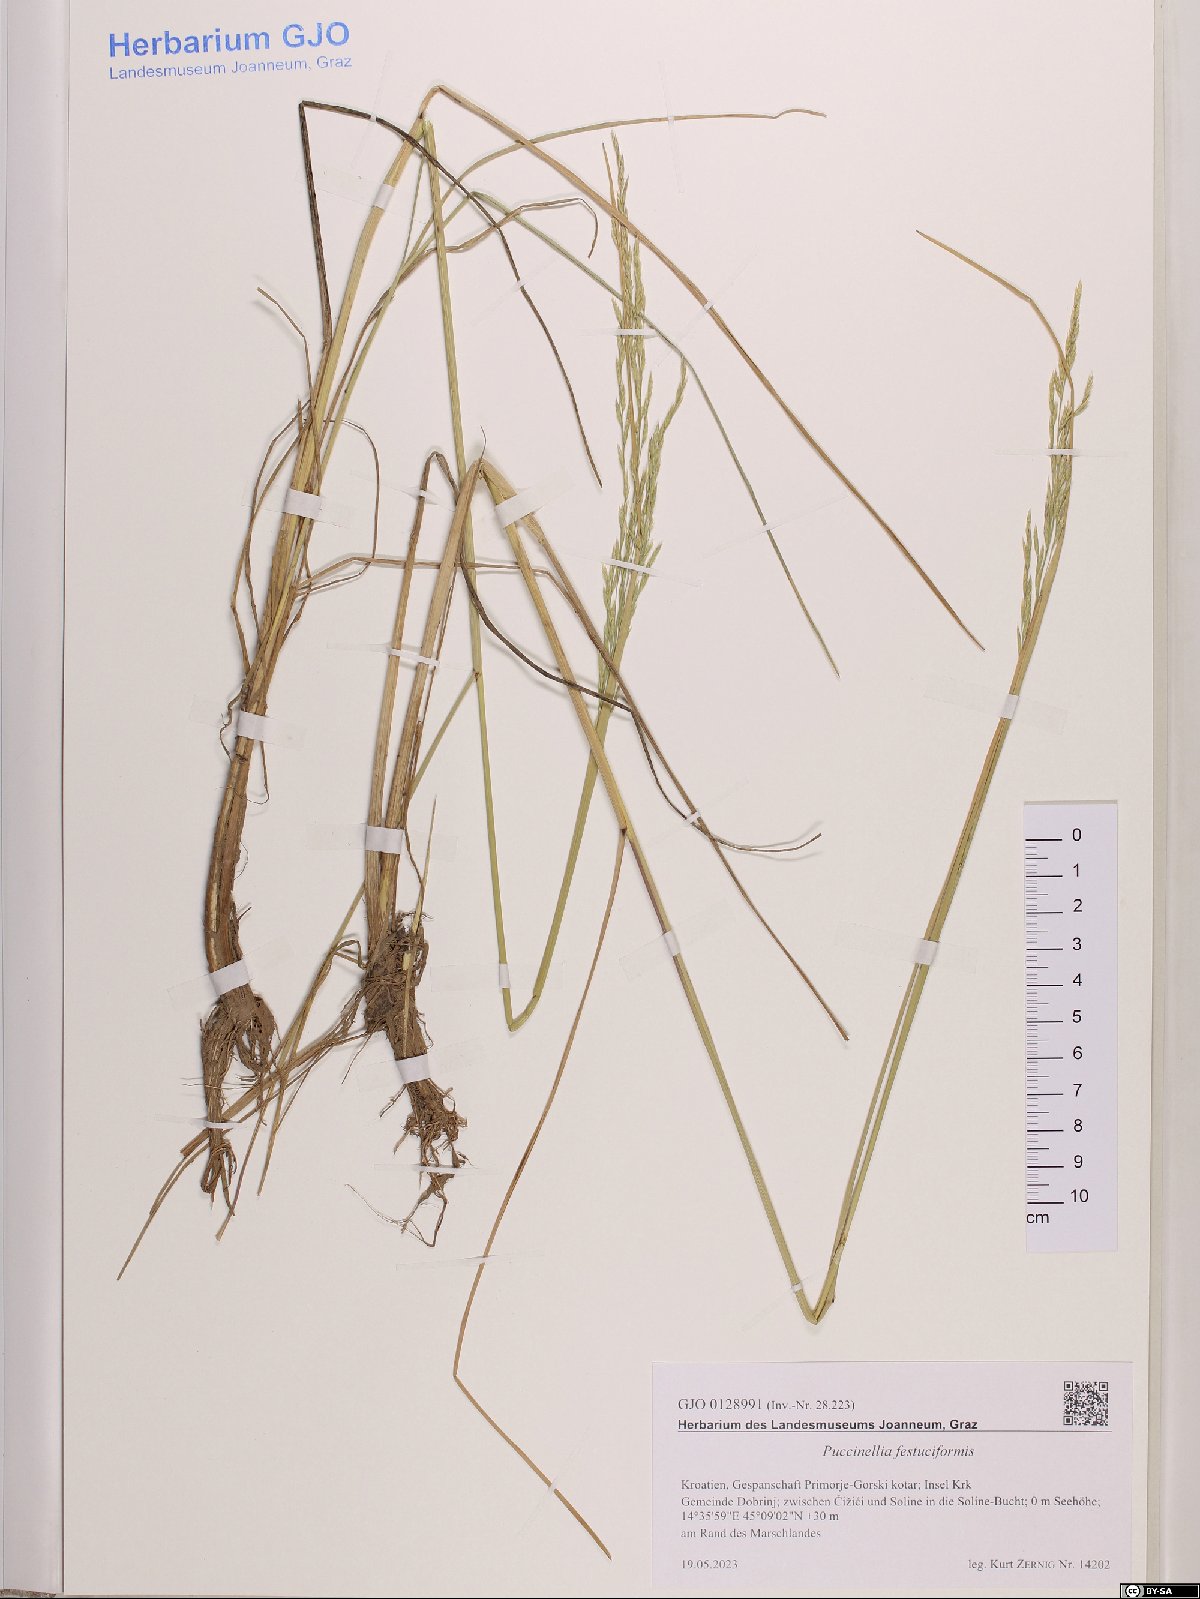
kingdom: Plantae
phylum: Tracheophyta
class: Liliopsida
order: Poales
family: Poaceae
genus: Puccinellia
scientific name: Puccinellia festuciformis
